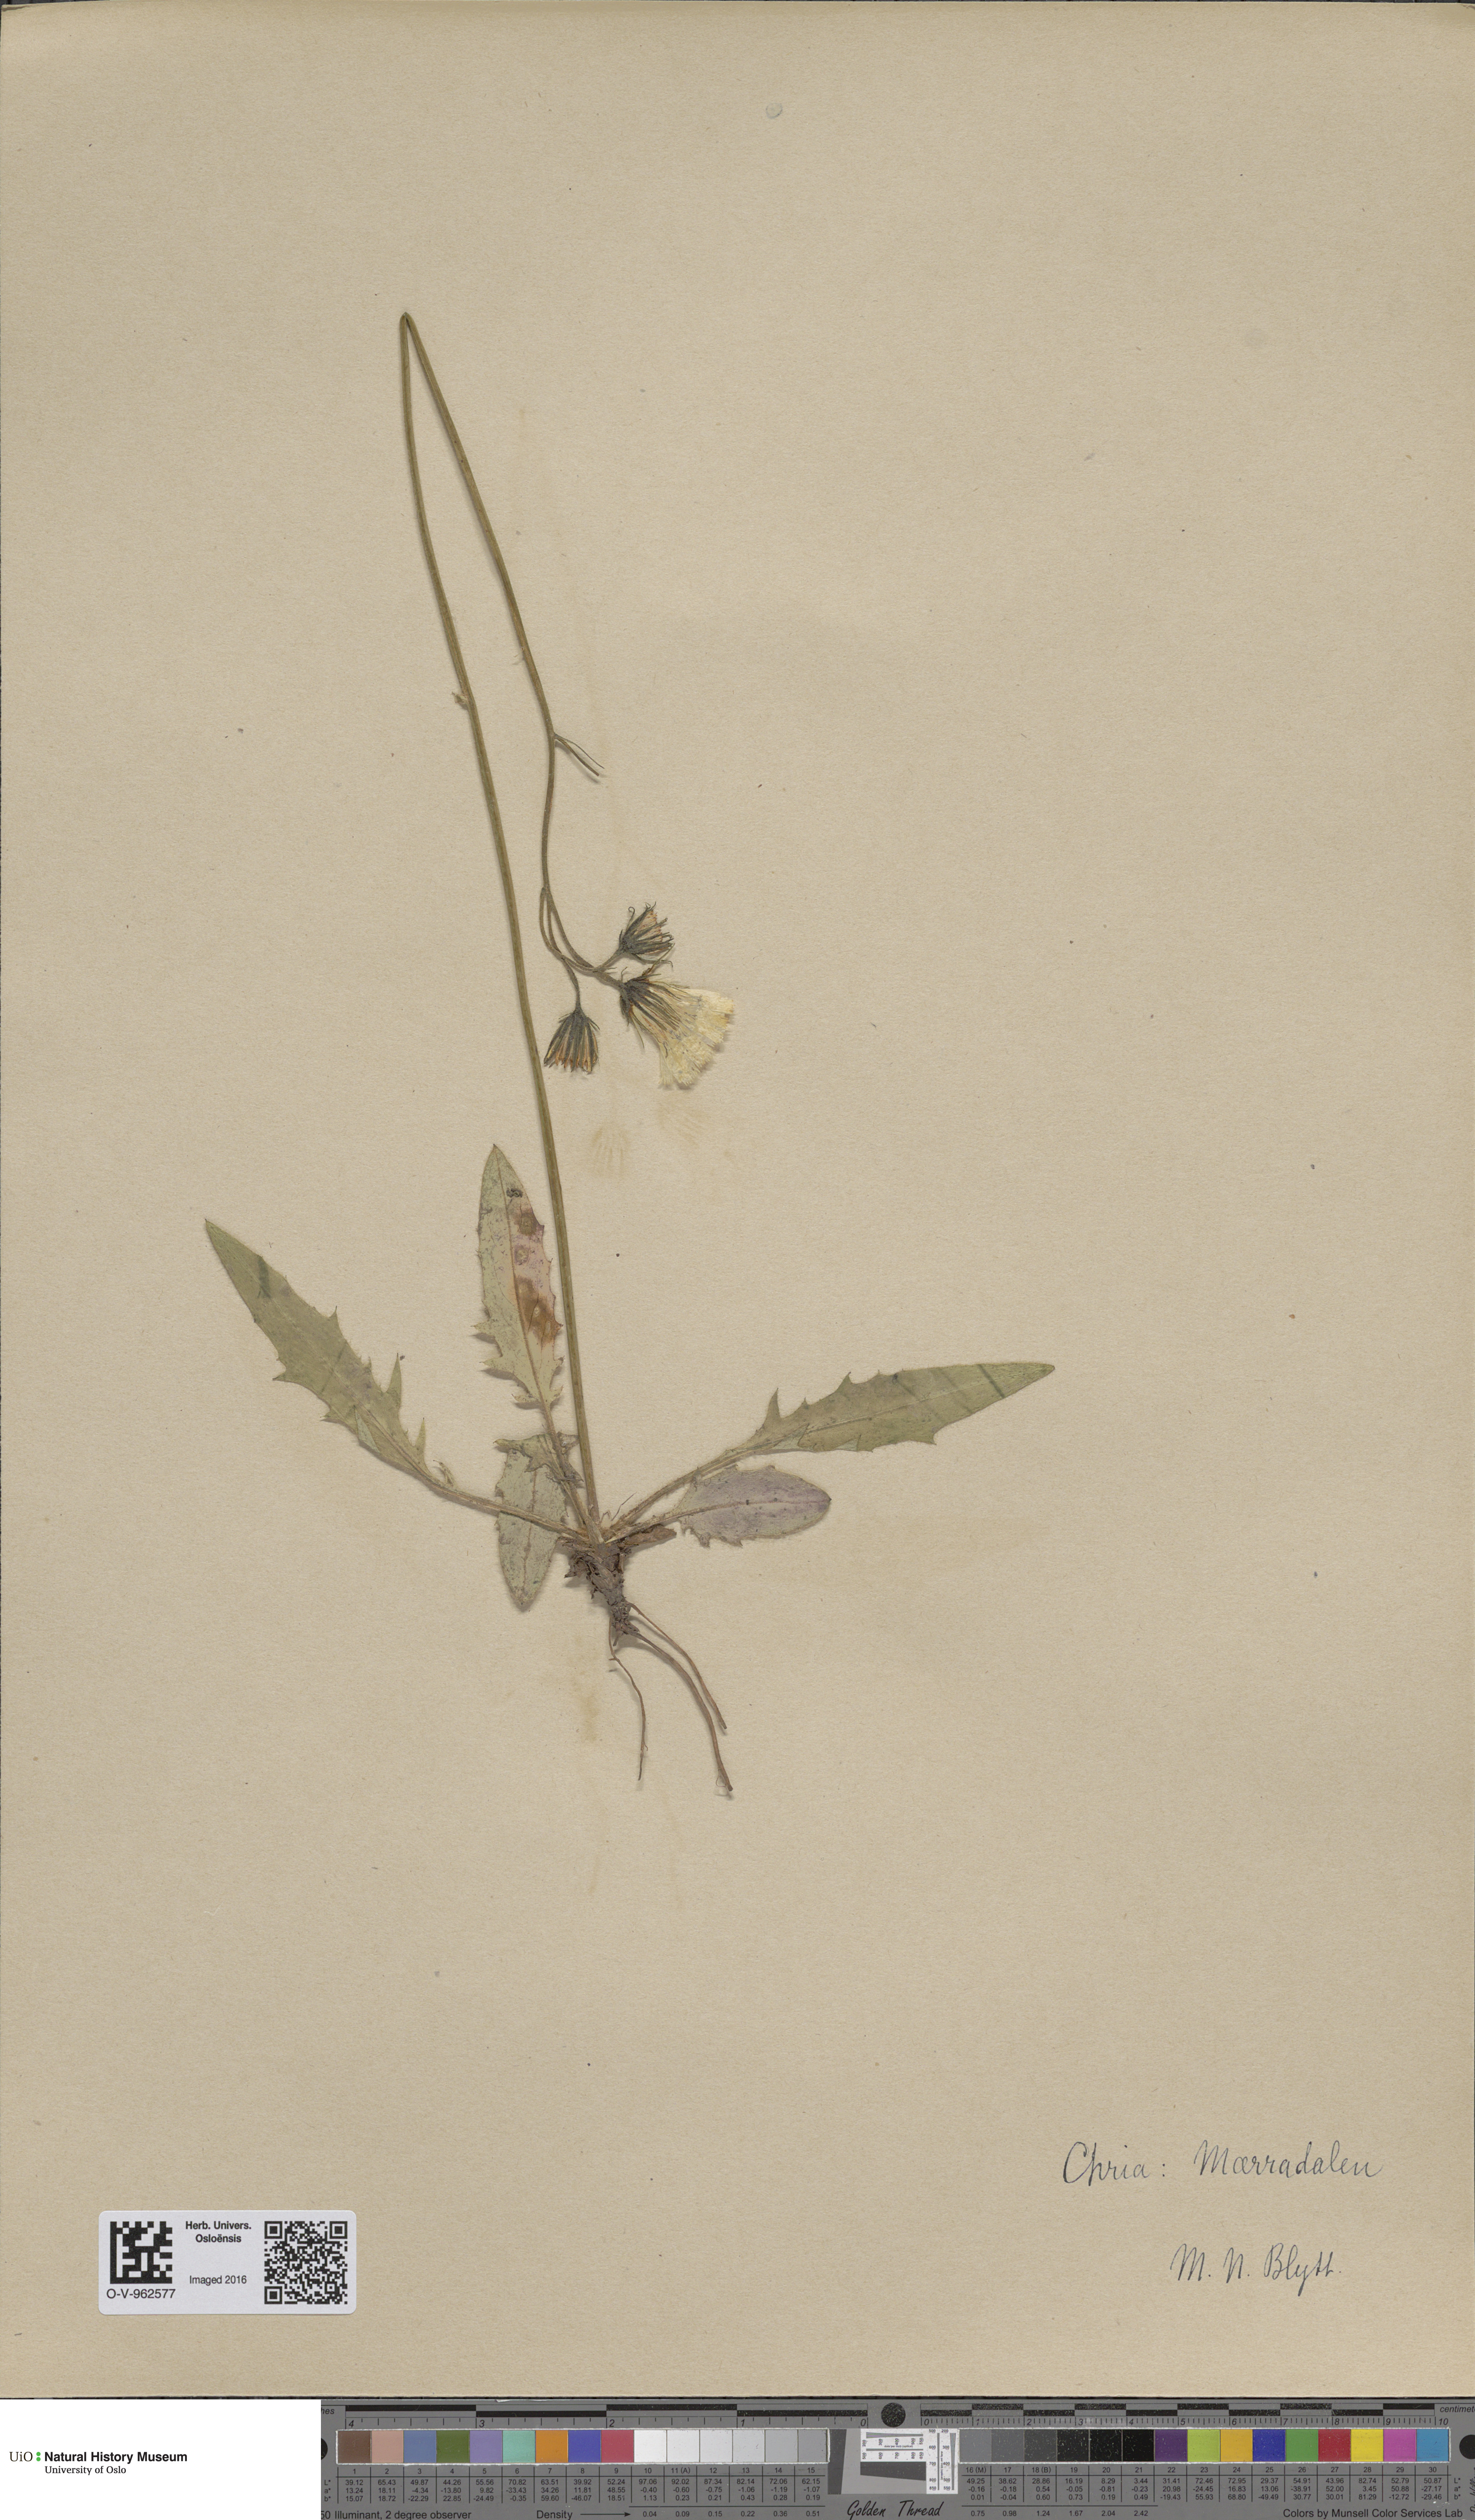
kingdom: Plantae
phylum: Tracheophyta
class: Magnoliopsida
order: Asterales
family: Asteraceae
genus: Hieracium
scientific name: Hieracium
